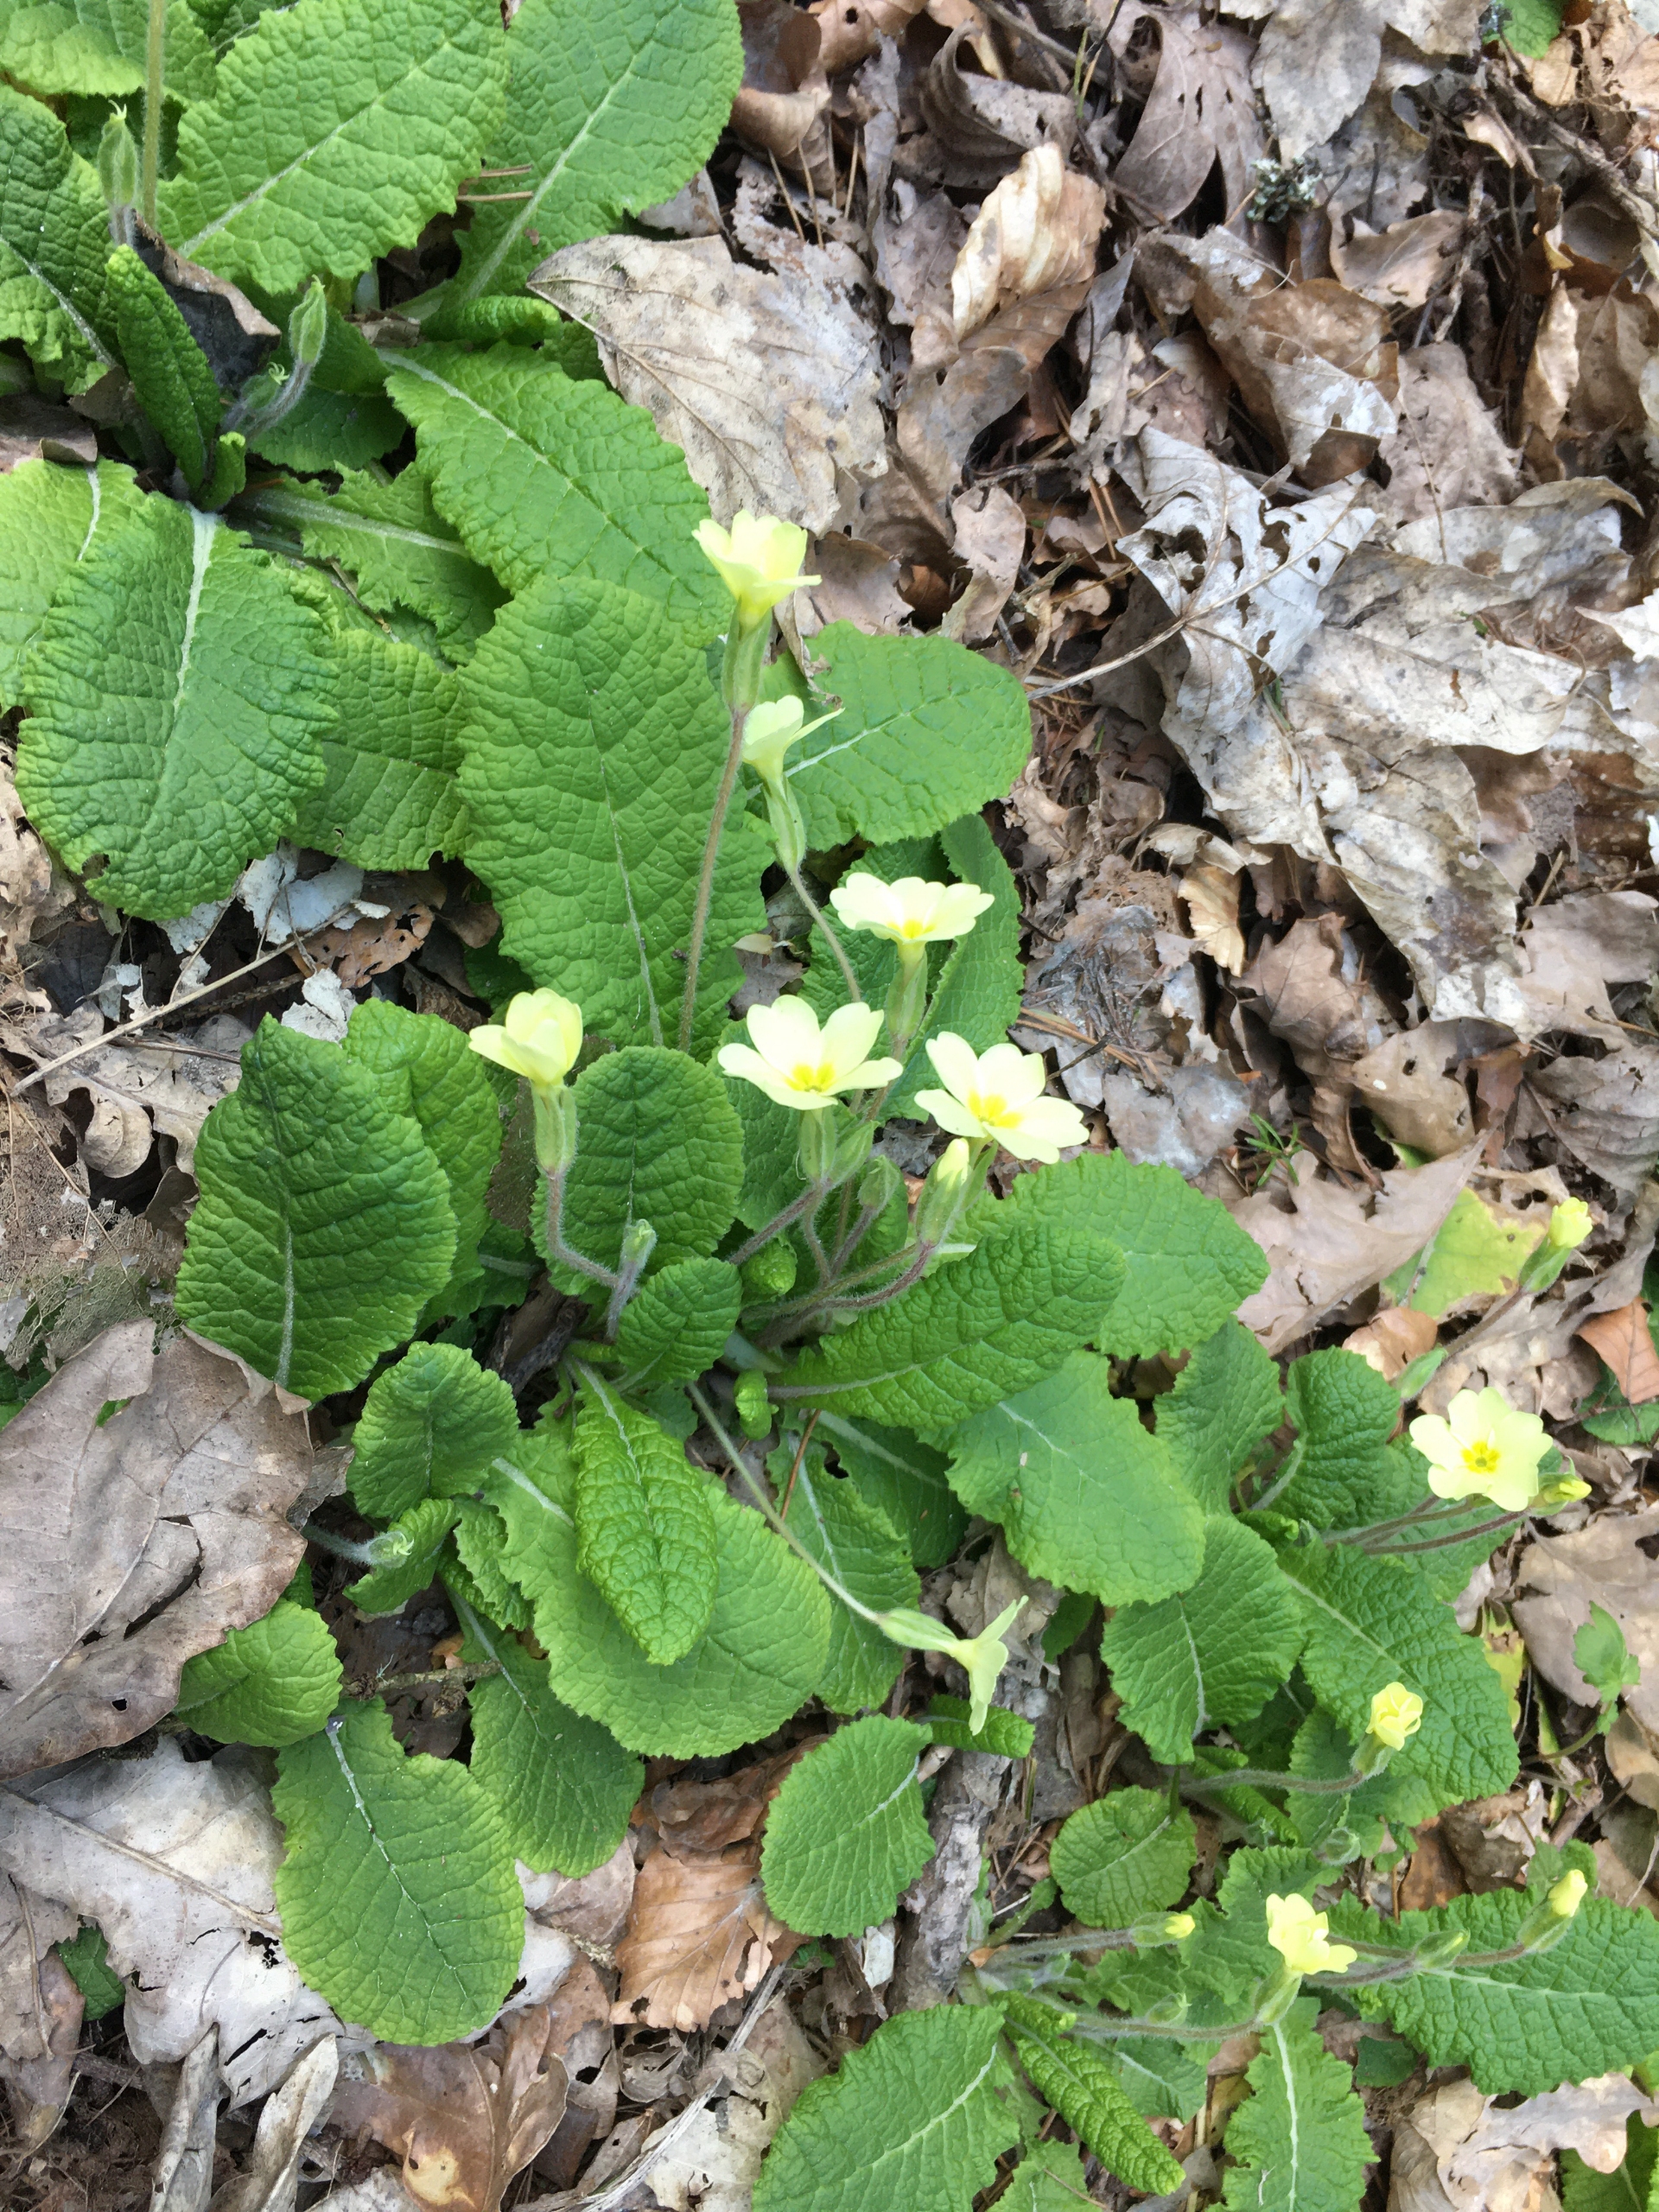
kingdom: Plantae
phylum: Tracheophyta
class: Magnoliopsida
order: Ericales
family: Primulaceae
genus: Primula
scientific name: Primula vulgaris
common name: Storblomstret kodriver
